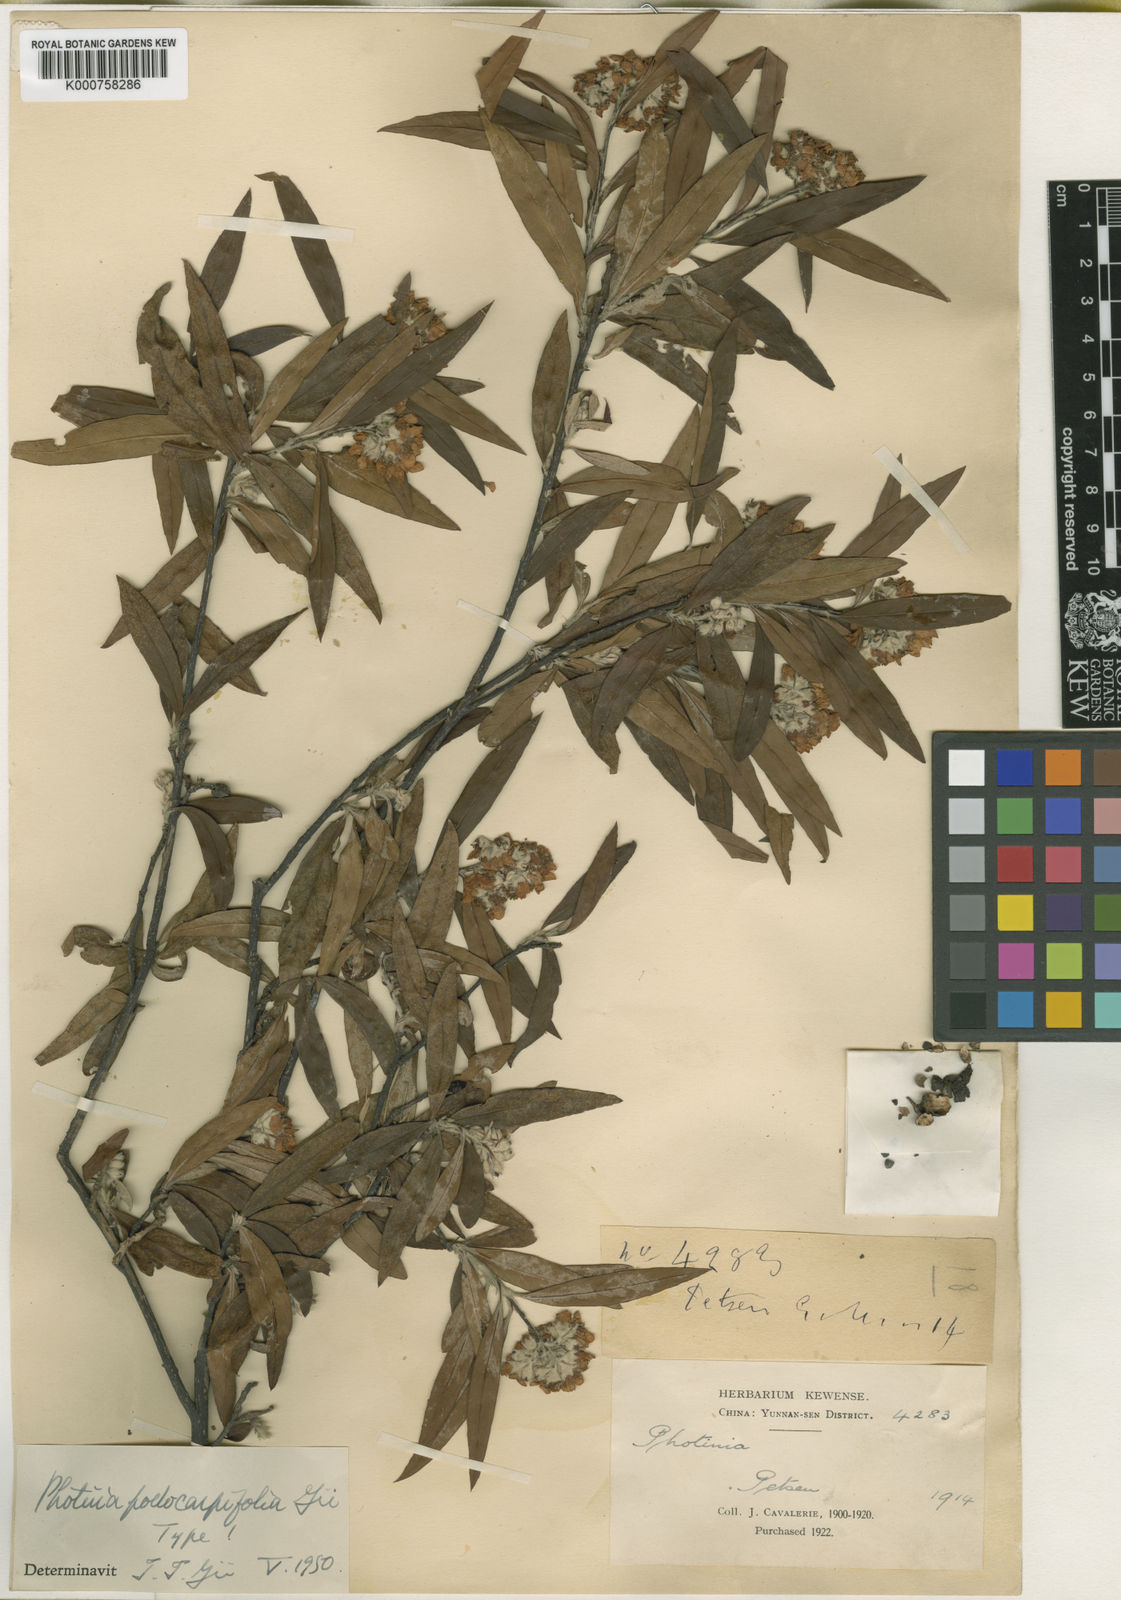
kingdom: Plantae
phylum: Tracheophyta
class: Magnoliopsida
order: Rosales
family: Rosaceae
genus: Pourthiaea
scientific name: Pourthiaea podocarpifolia
